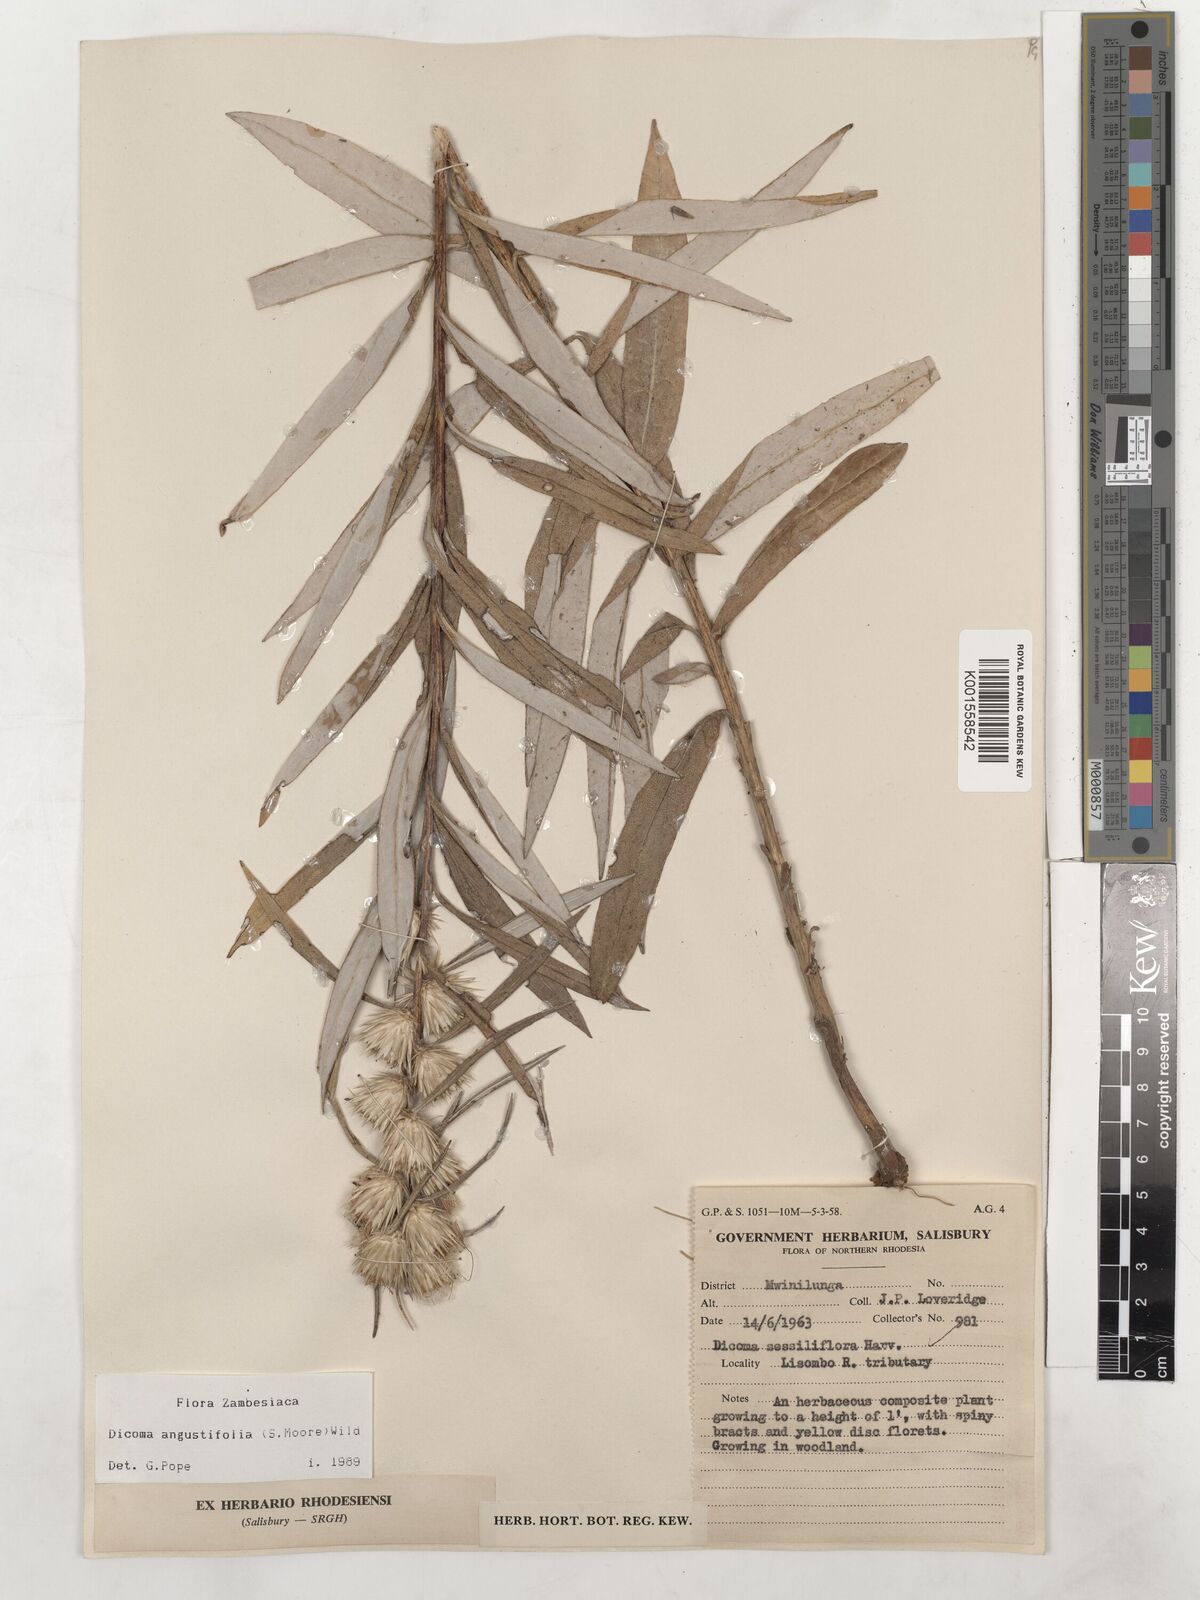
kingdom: Plantae
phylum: Tracheophyta
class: Magnoliopsida
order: Asterales
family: Asteraceae
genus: Macledium
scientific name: Macledium poggei
